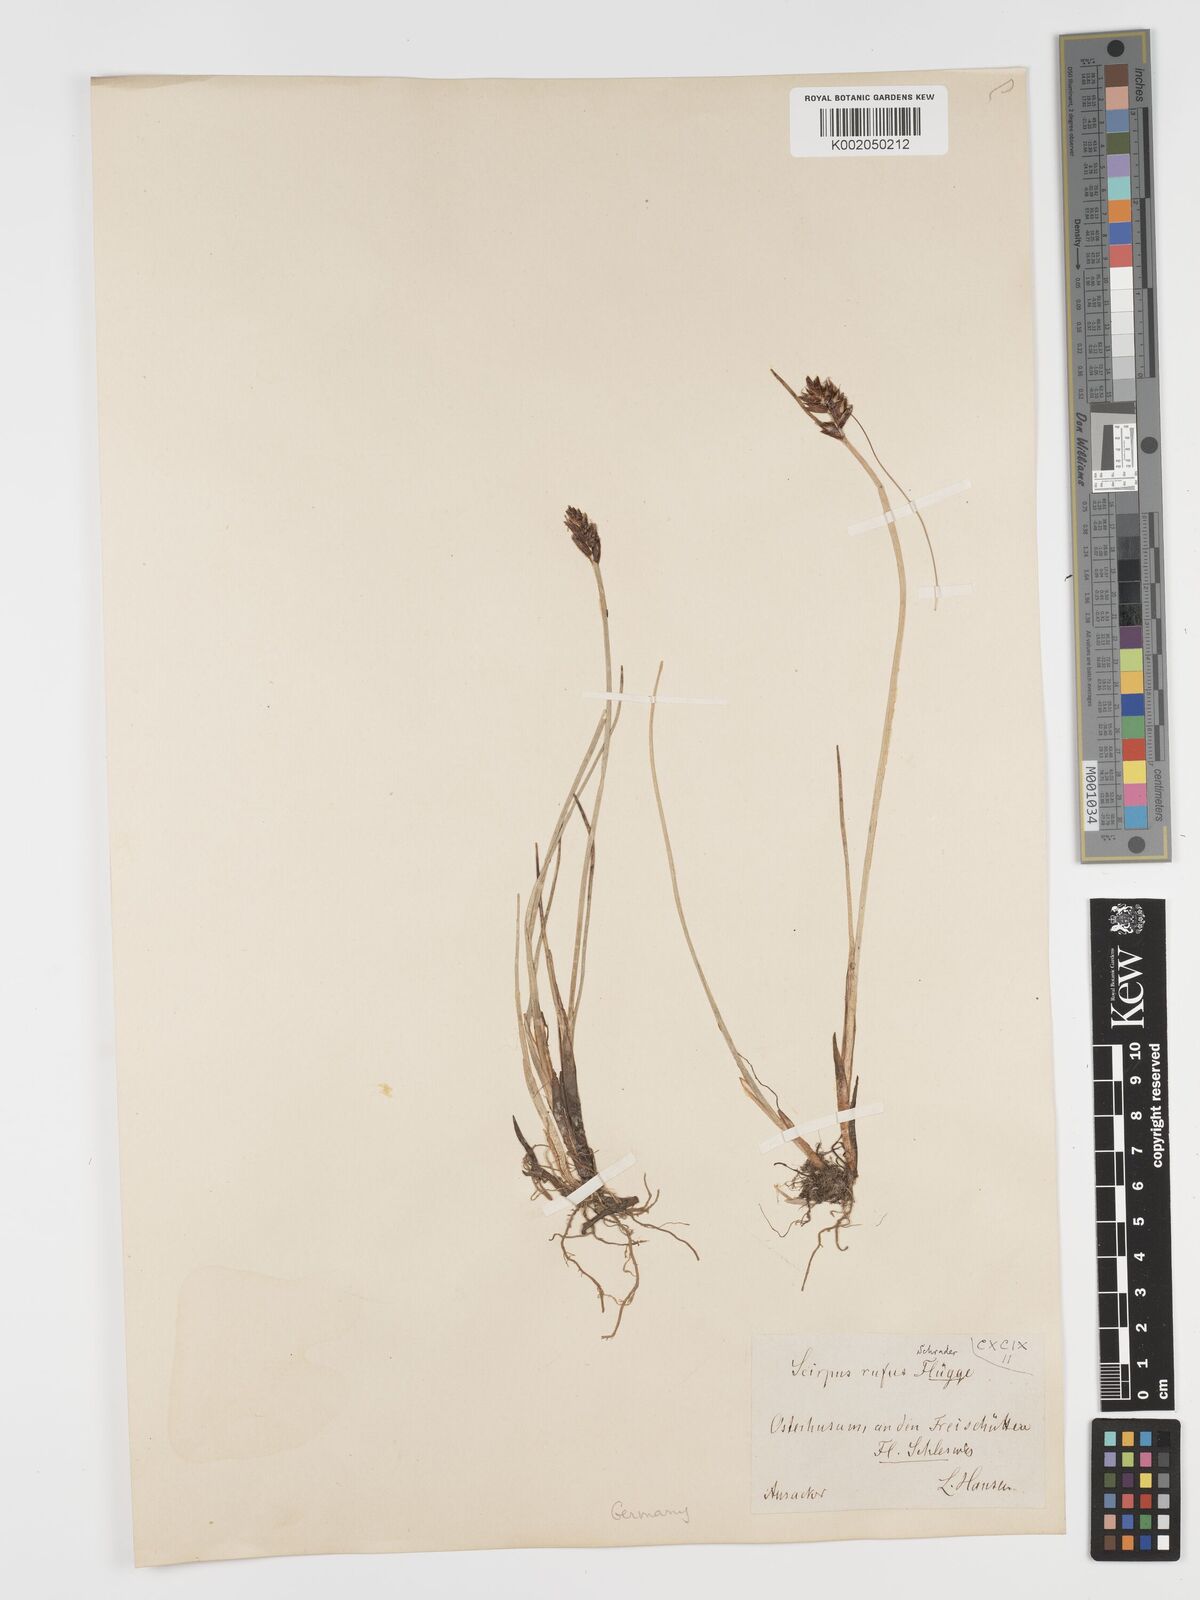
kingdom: Plantae
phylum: Tracheophyta
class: Liliopsida
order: Poales
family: Cyperaceae
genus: Blysmus
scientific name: Blysmus rufus
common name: Saltmarsh flat-sedge
